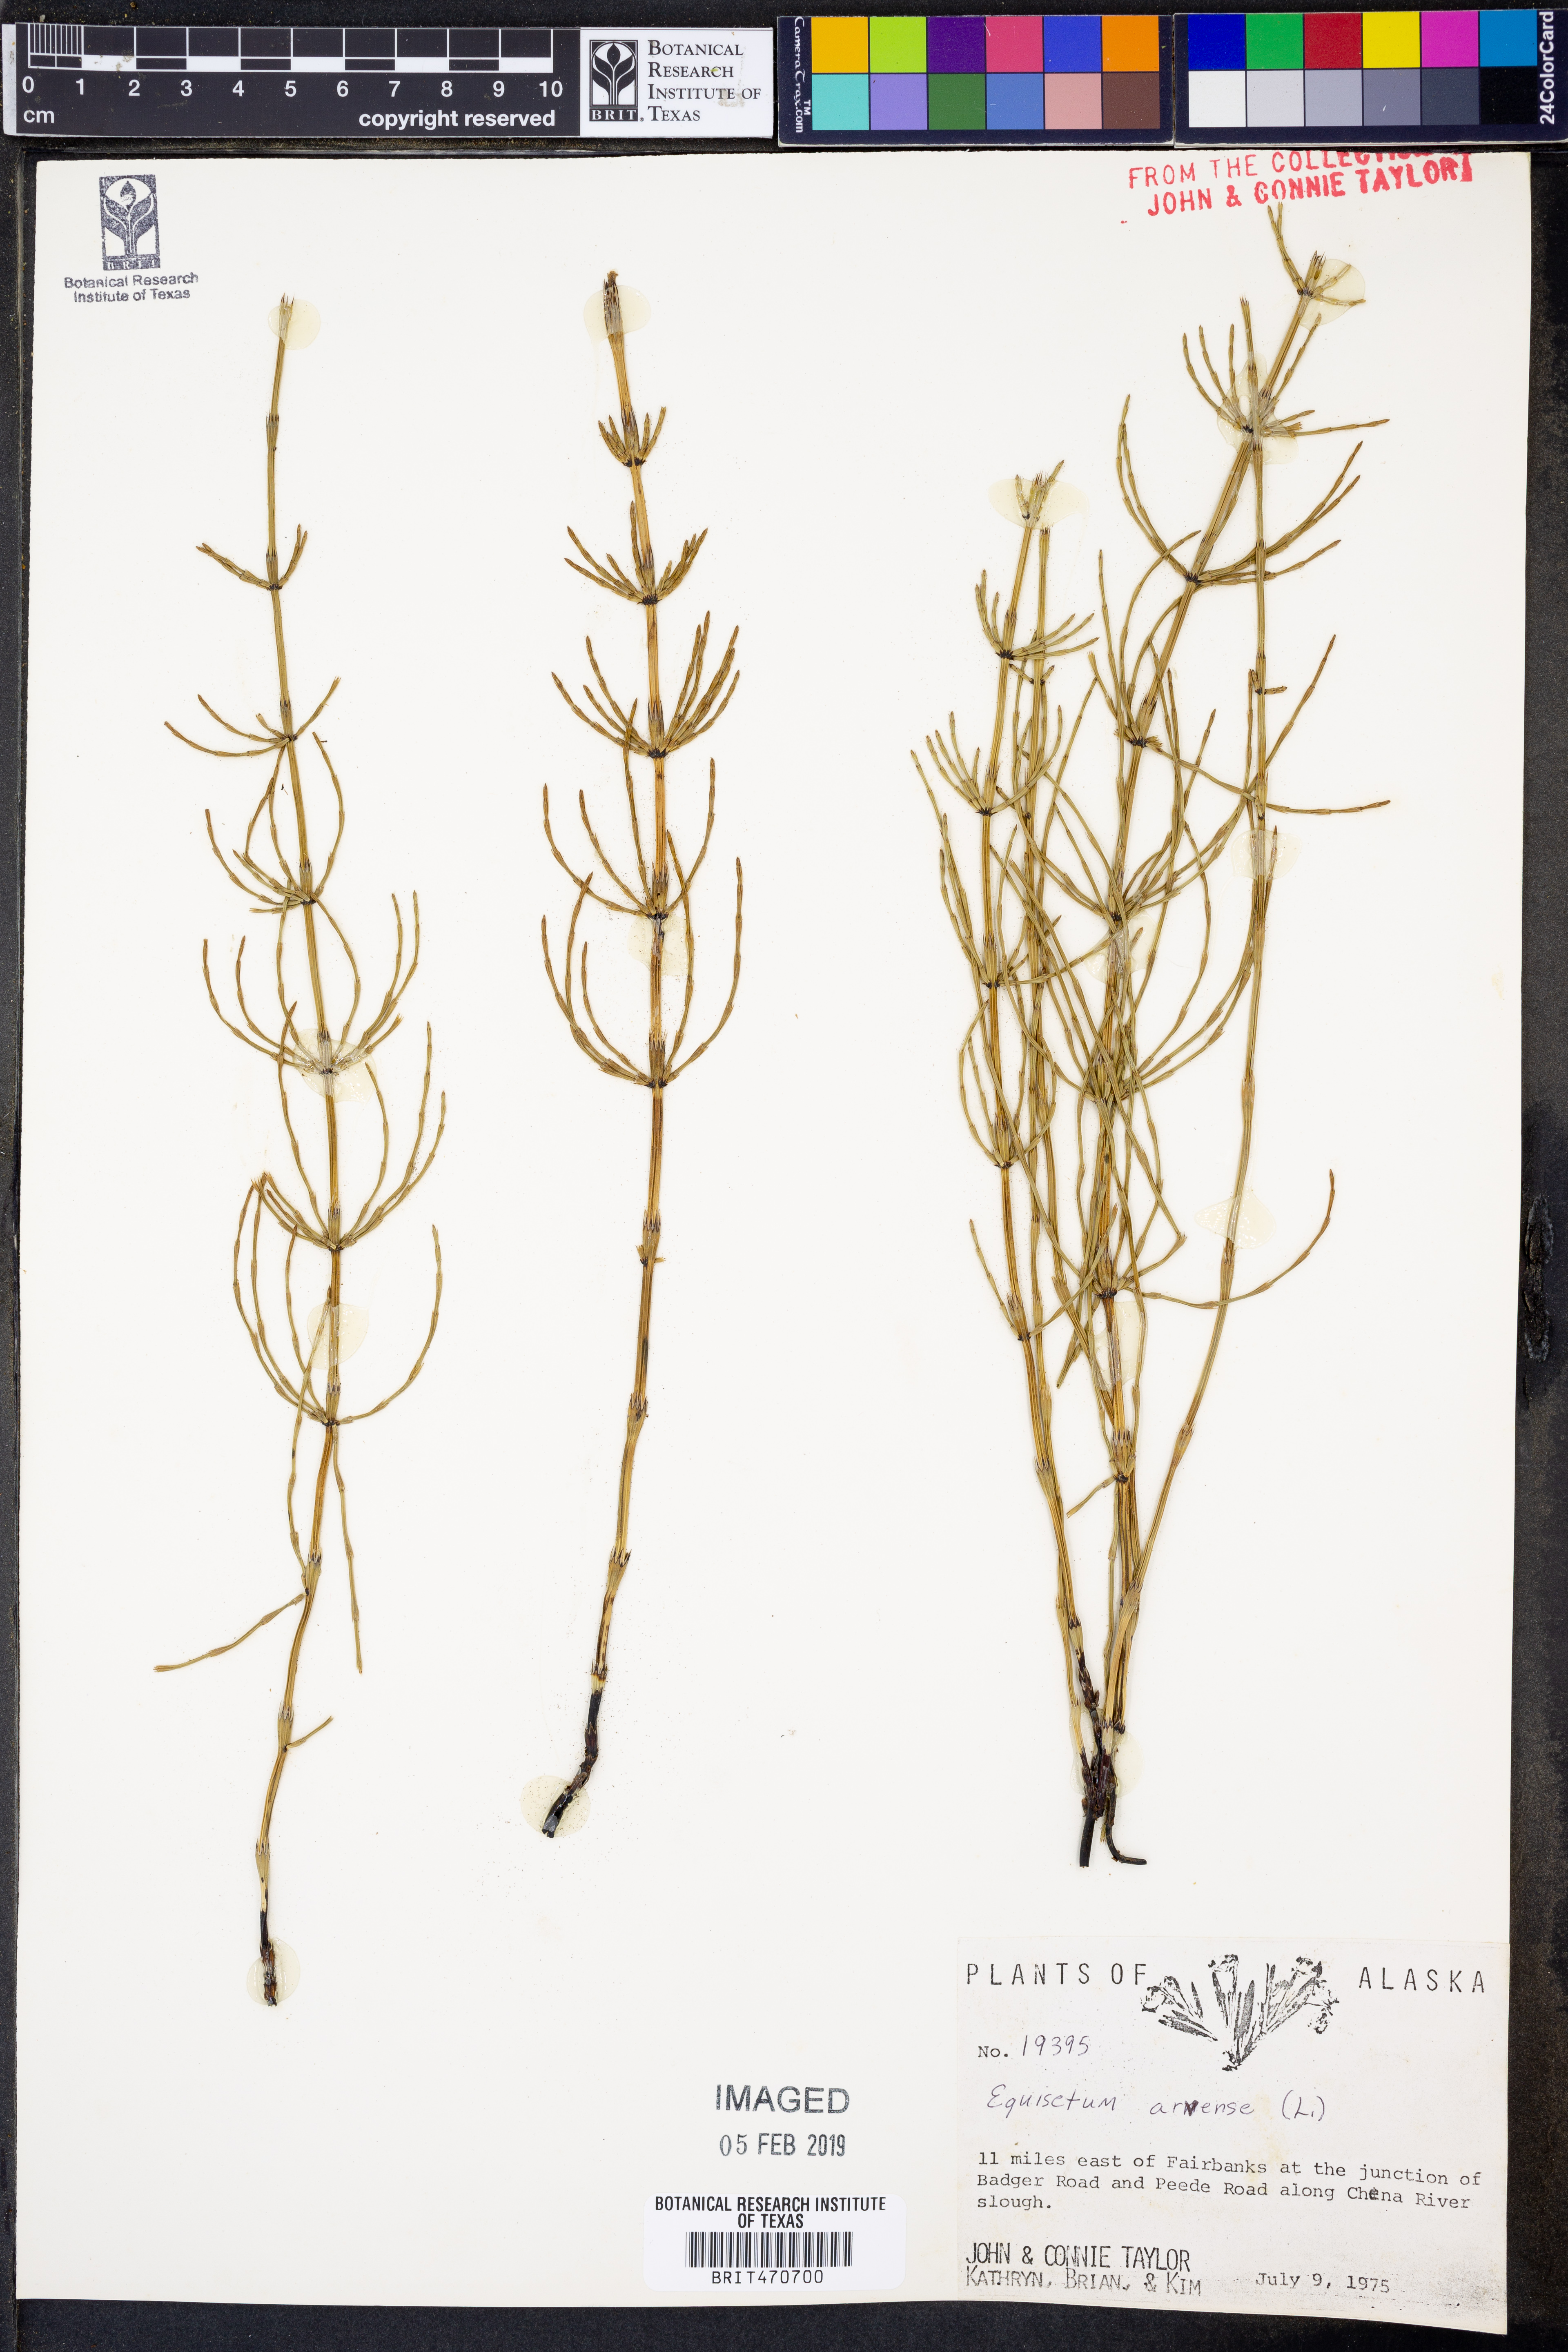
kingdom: Plantae
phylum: Tracheophyta
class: Polypodiopsida
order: Equisetales
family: Equisetaceae
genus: Equisetum
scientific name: Equisetum arvense
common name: Field horsetail
